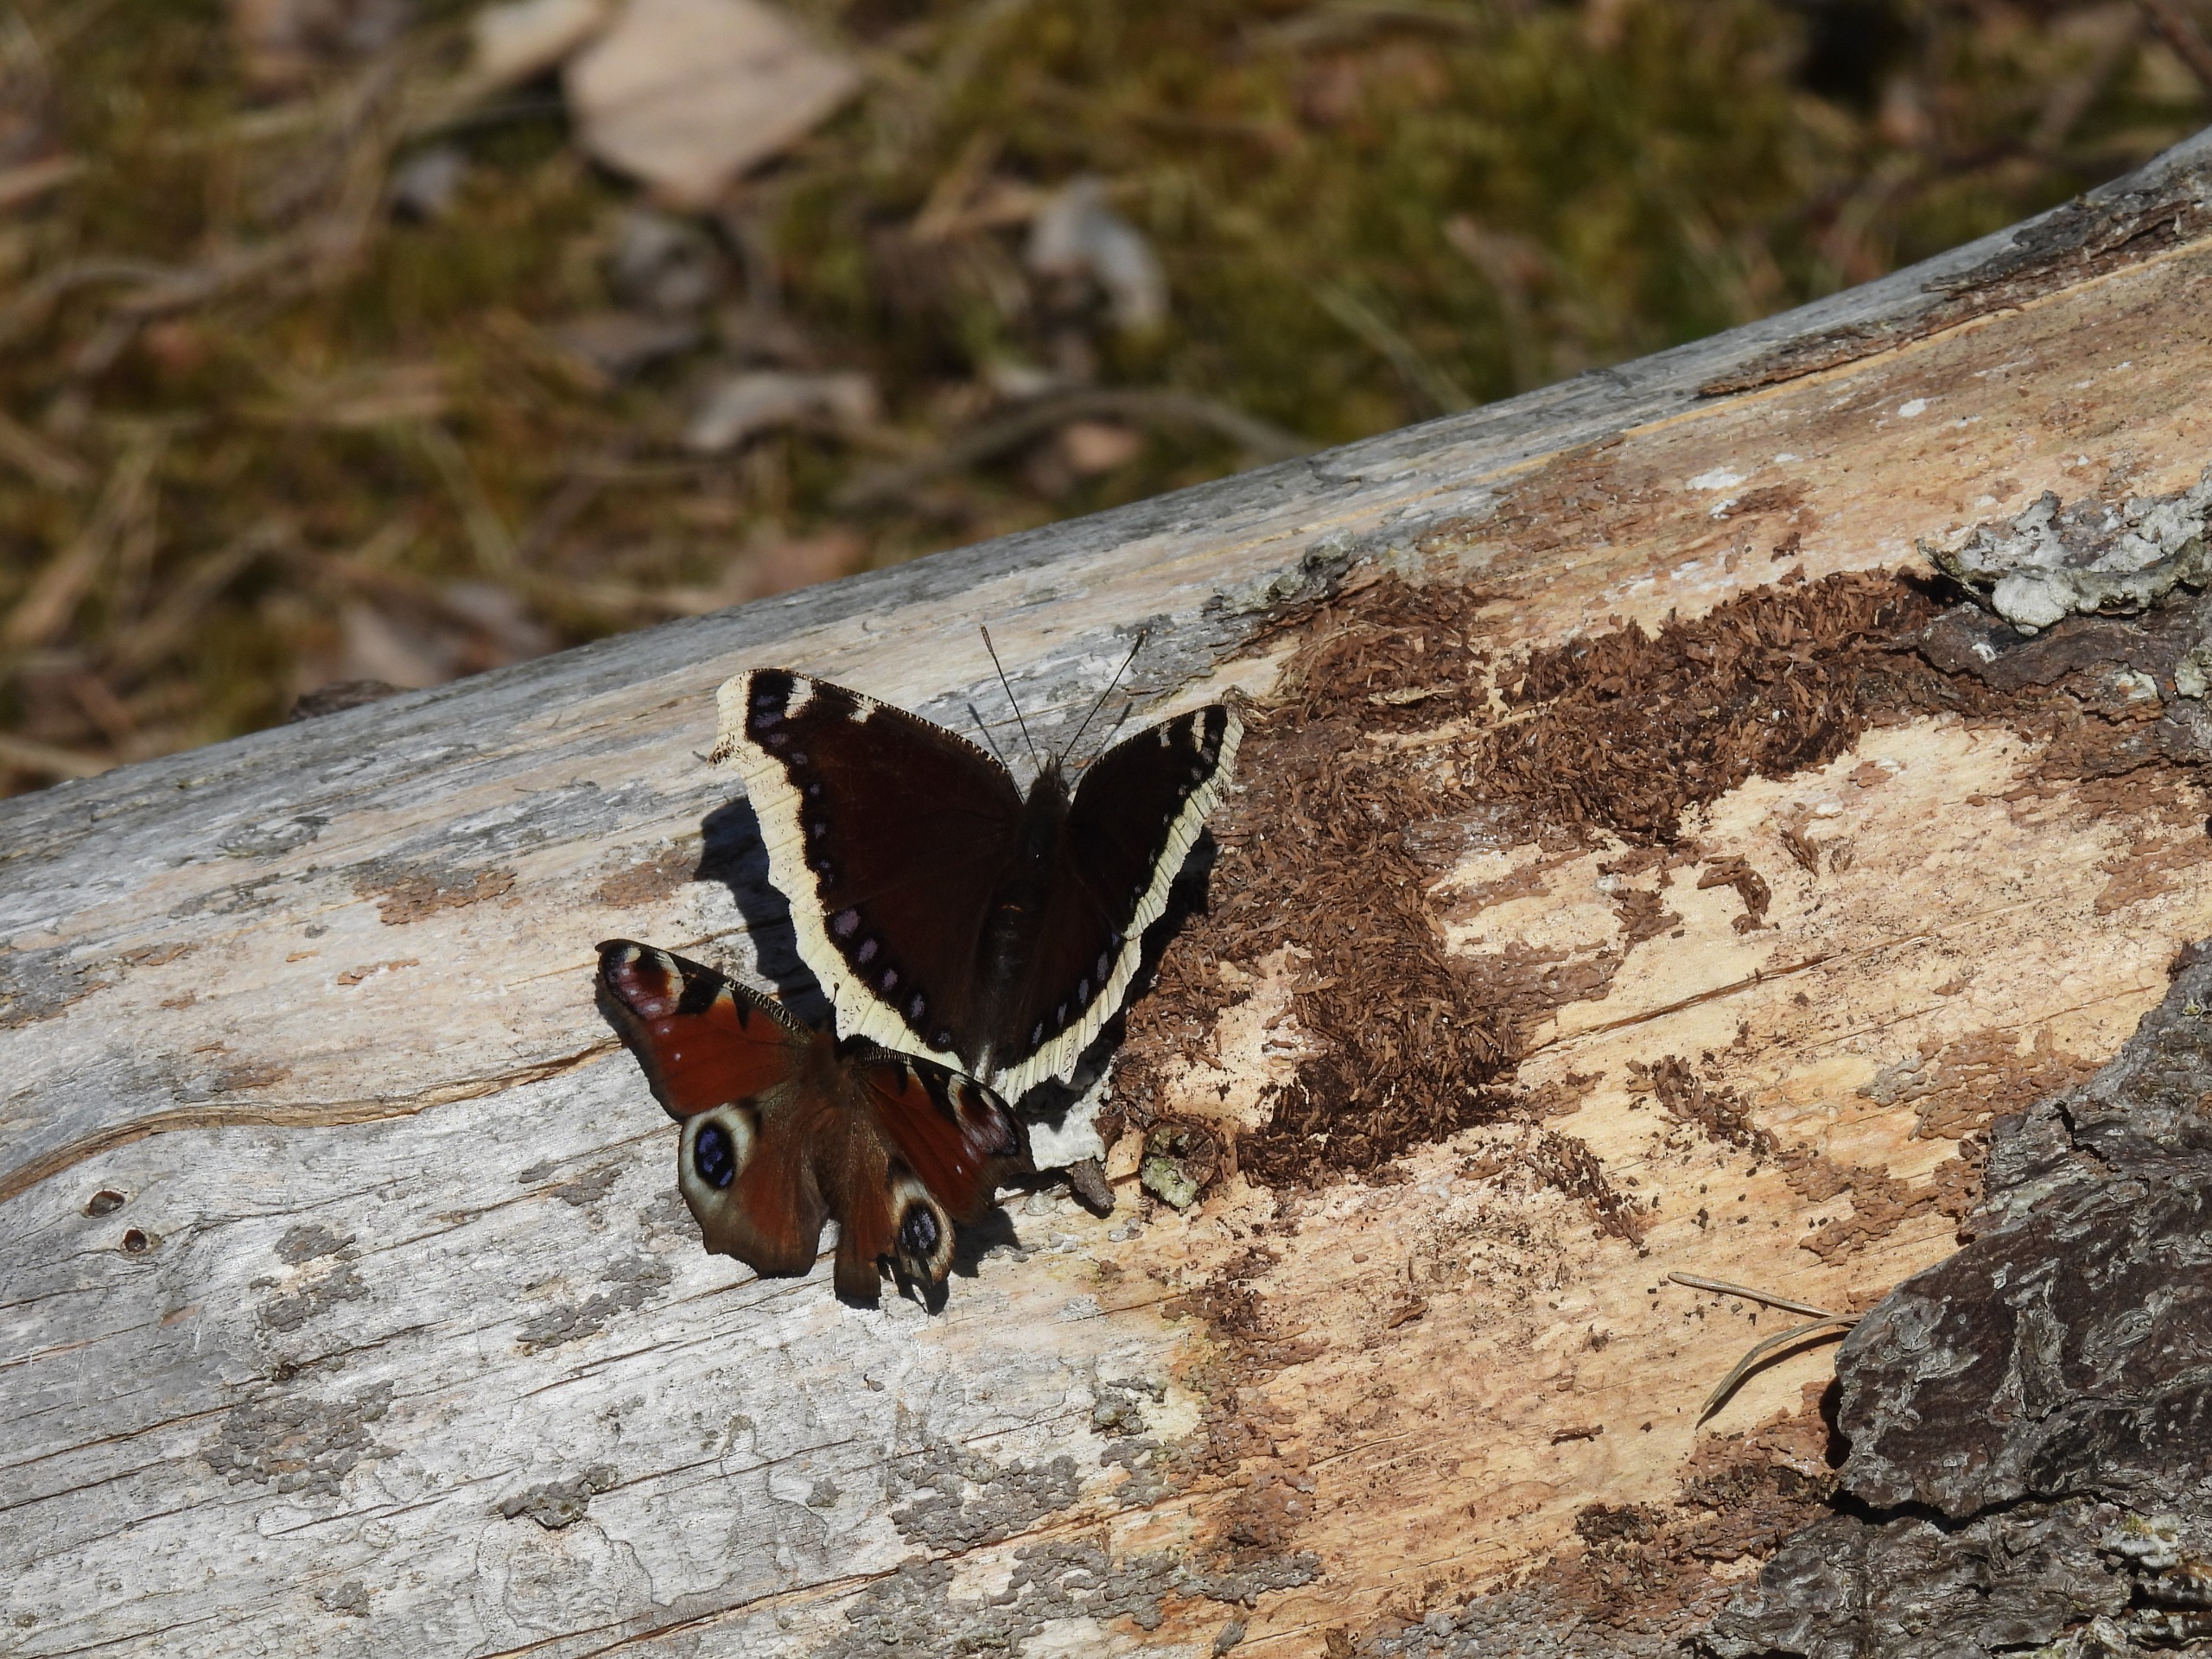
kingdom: Animalia
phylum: Arthropoda
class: Insecta
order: Lepidoptera
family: Nymphalidae
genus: Nymphalis
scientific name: Nymphalis antiopa
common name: Sørgekåbe
